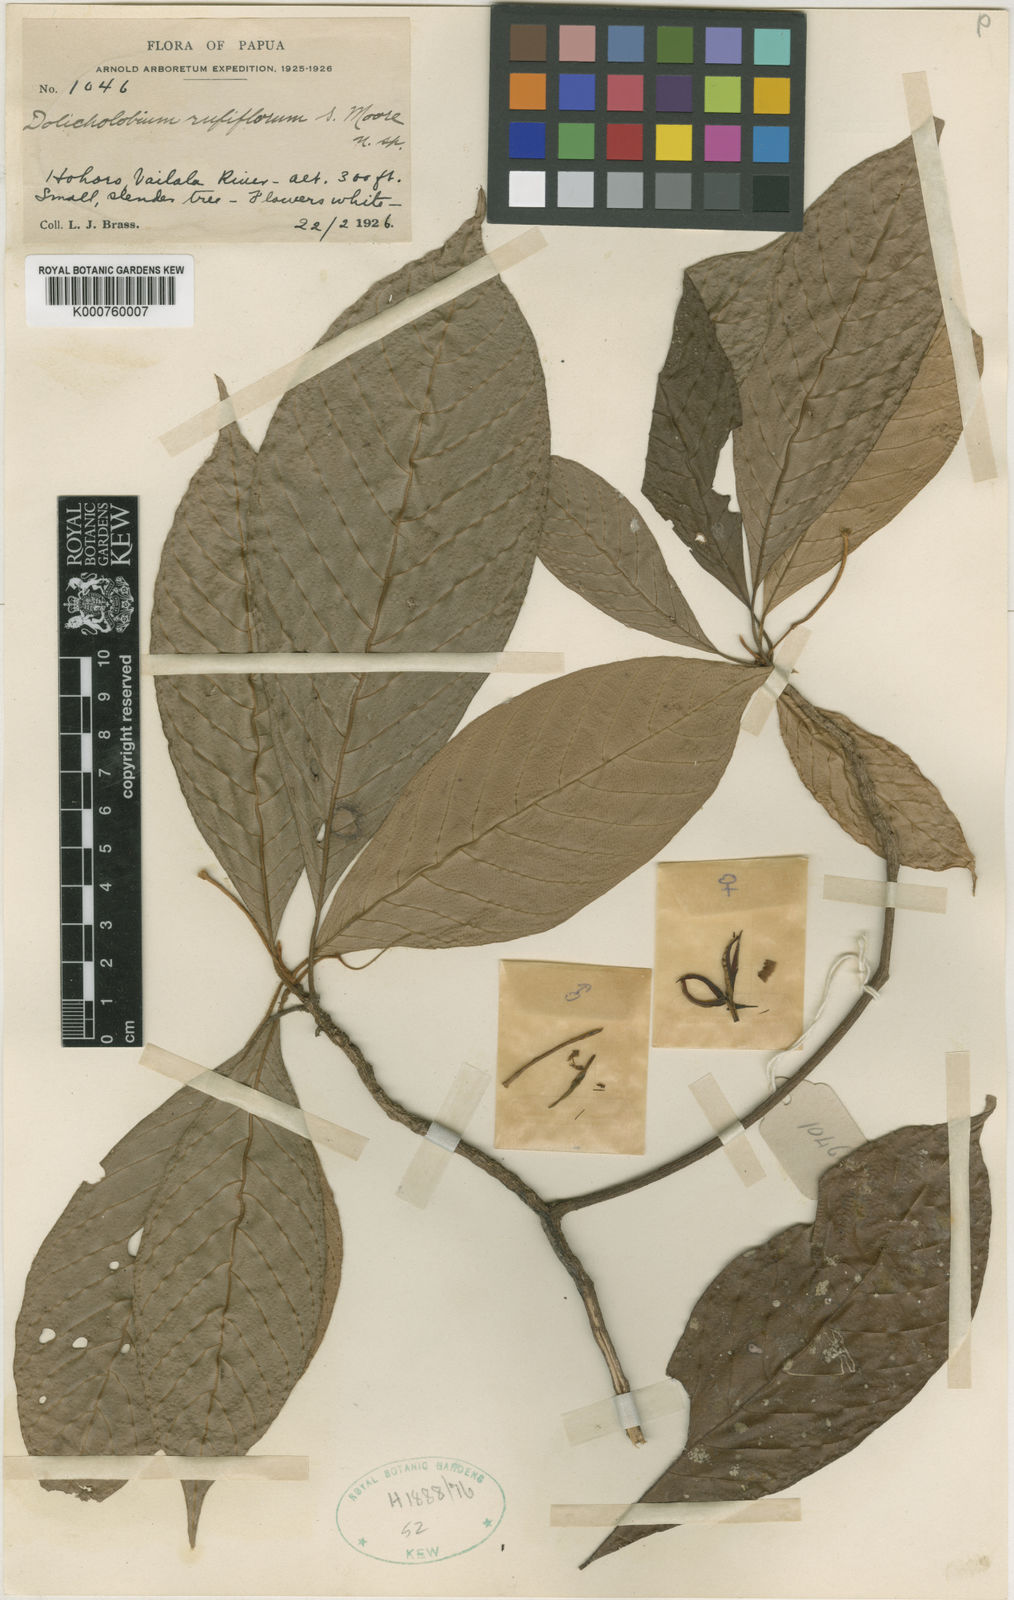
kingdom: Plantae
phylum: Tracheophyta
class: Magnoliopsida
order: Gentianales
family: Rubiaceae
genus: Dolicholobium
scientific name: Dolicholobium rufiflorum
